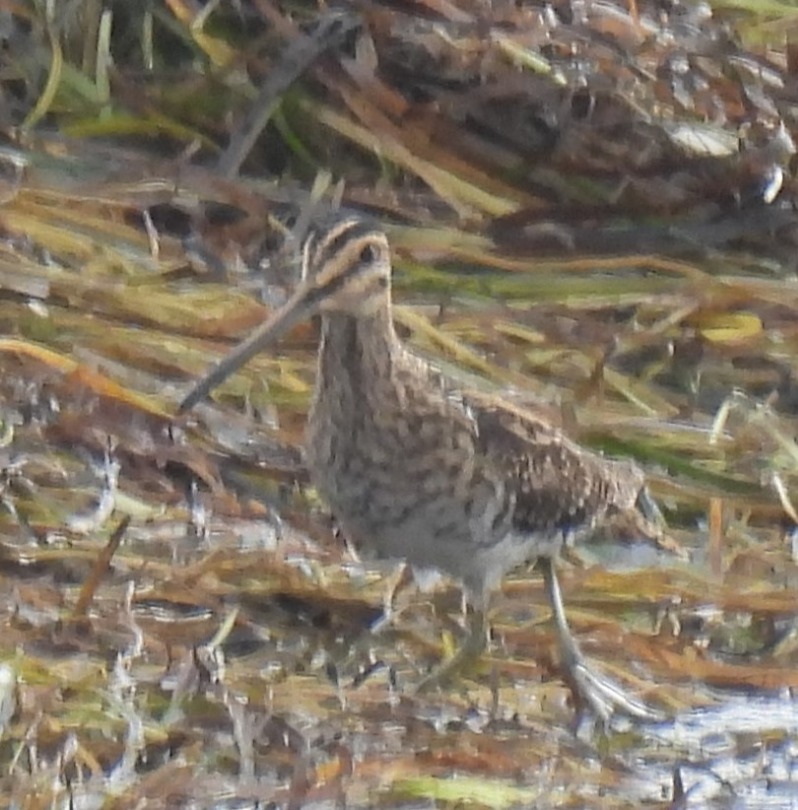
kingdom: Animalia
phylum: Chordata
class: Aves
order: Charadriiformes
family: Scolopacidae
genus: Gallinago
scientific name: Gallinago gallinago
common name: Dobbeltbekkasin
